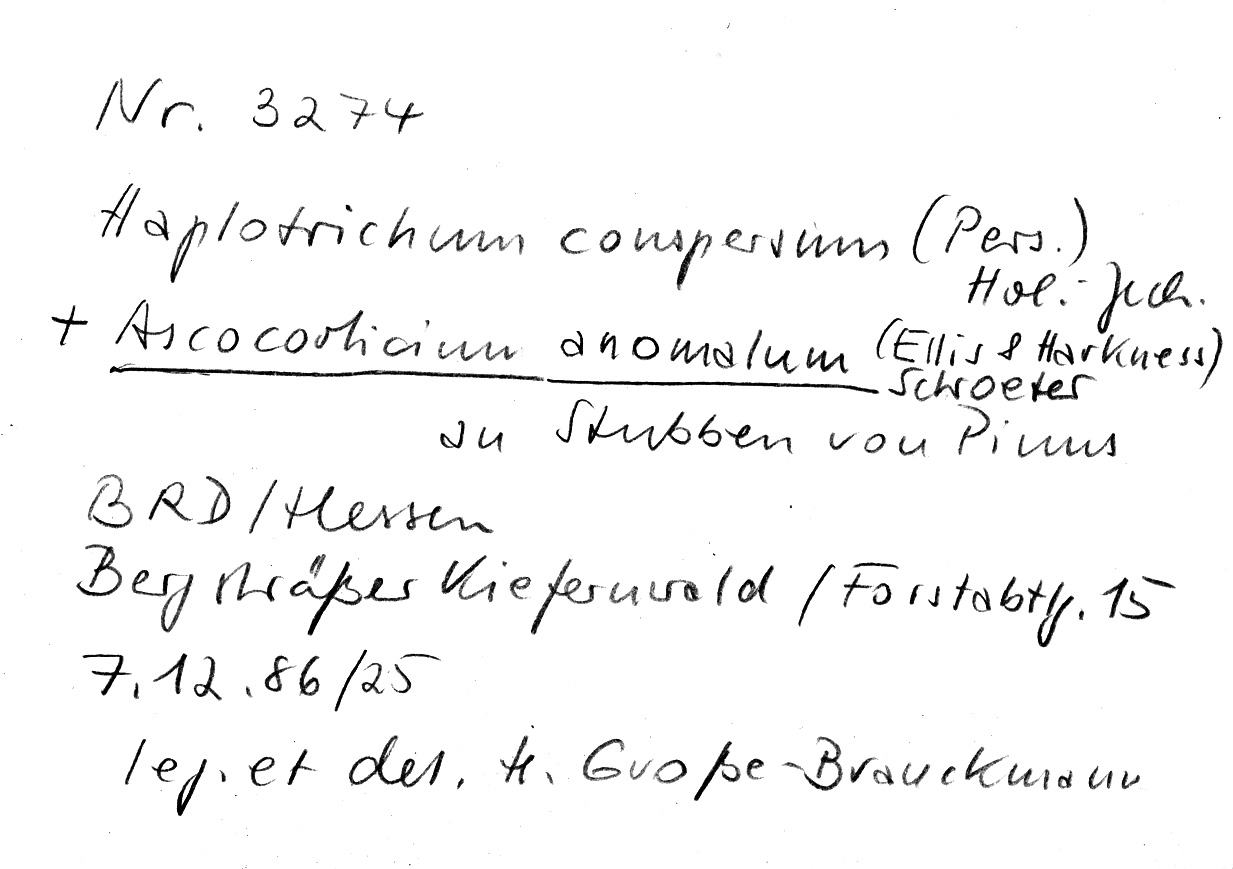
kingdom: Fungi
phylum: Basidiomycota
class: Agaricomycetes
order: Cantharellales
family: Botryobasidiaceae
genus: Botryobasidium
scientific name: Botryobasidium conspersum
